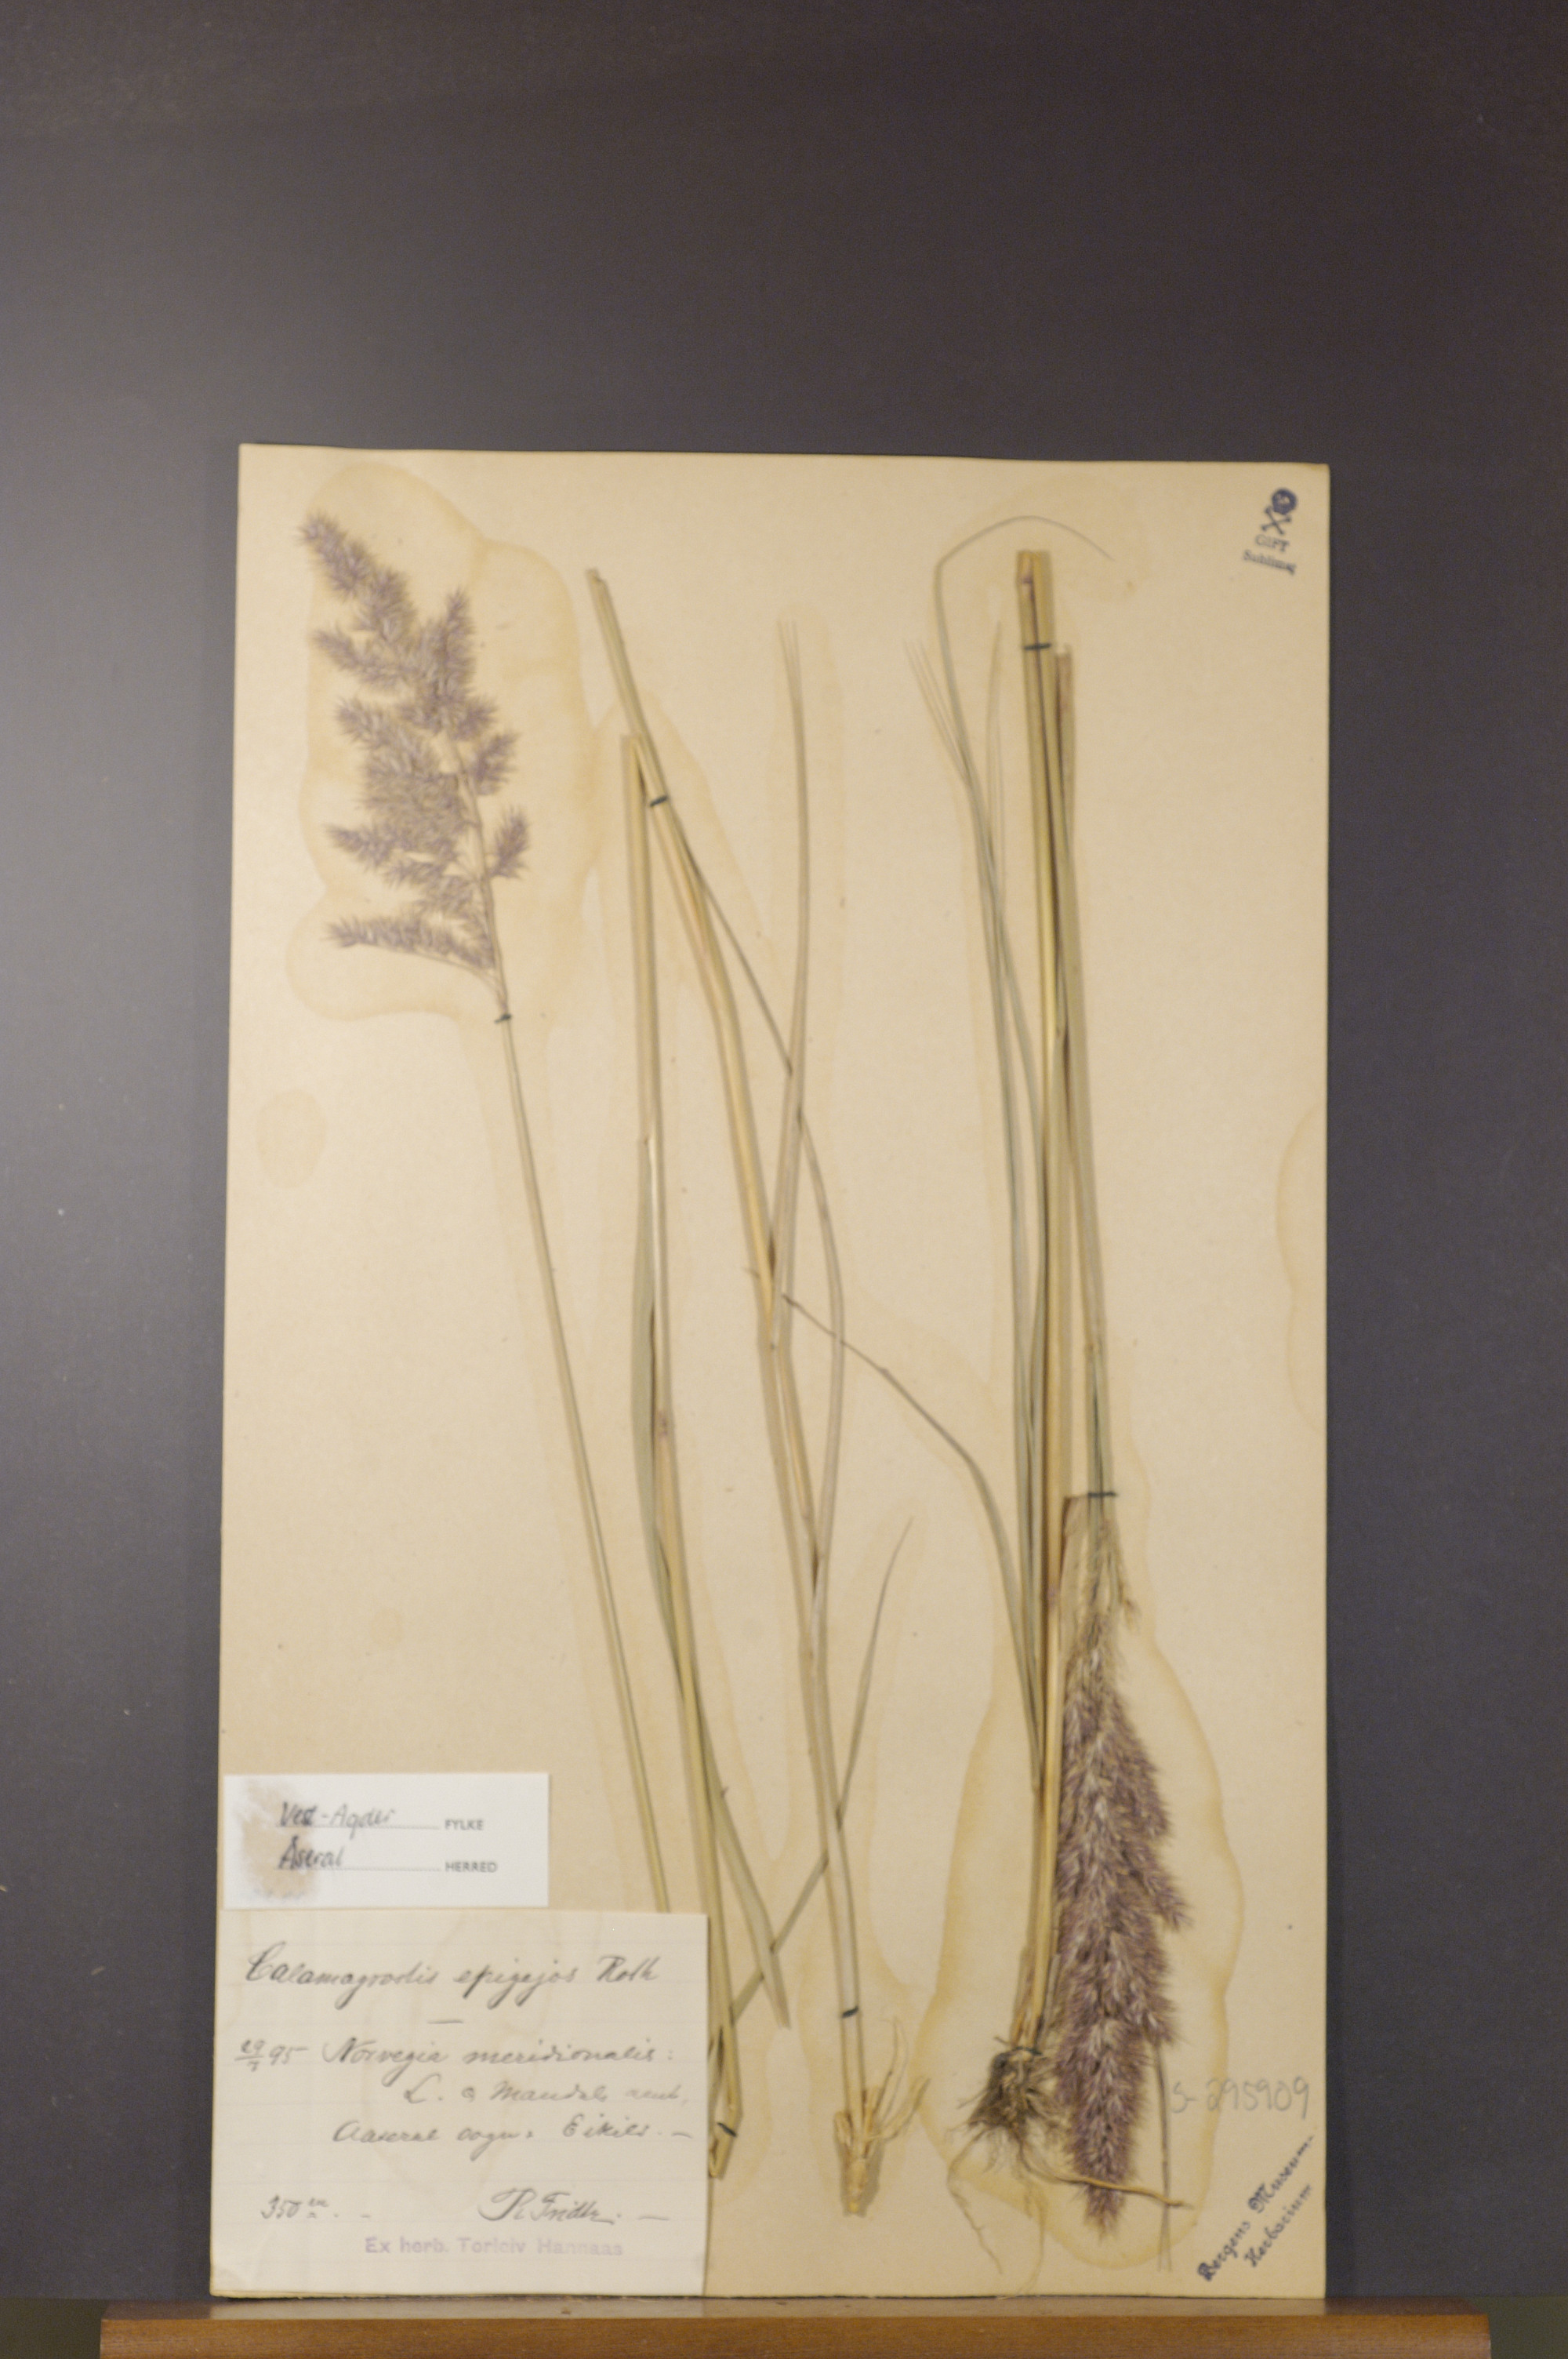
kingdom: Plantae
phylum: Tracheophyta
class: Liliopsida
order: Poales
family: Poaceae
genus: Calamagrostis
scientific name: Calamagrostis epigejos
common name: Wood small-reed
